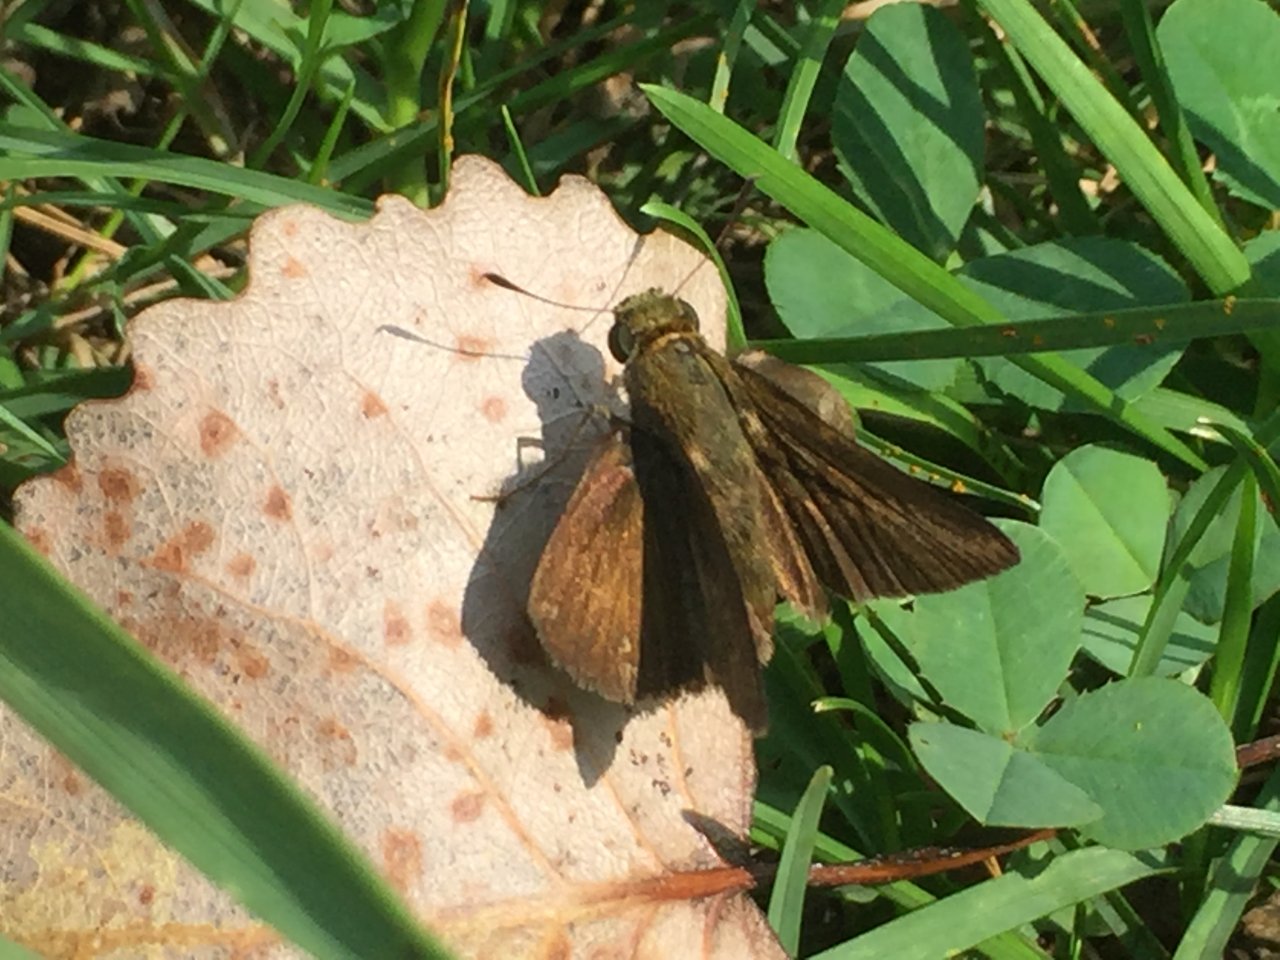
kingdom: Animalia
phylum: Arthropoda
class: Insecta
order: Lepidoptera
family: Hesperiidae
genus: Euphyes
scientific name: Euphyes vestris
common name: Dun Skipper
